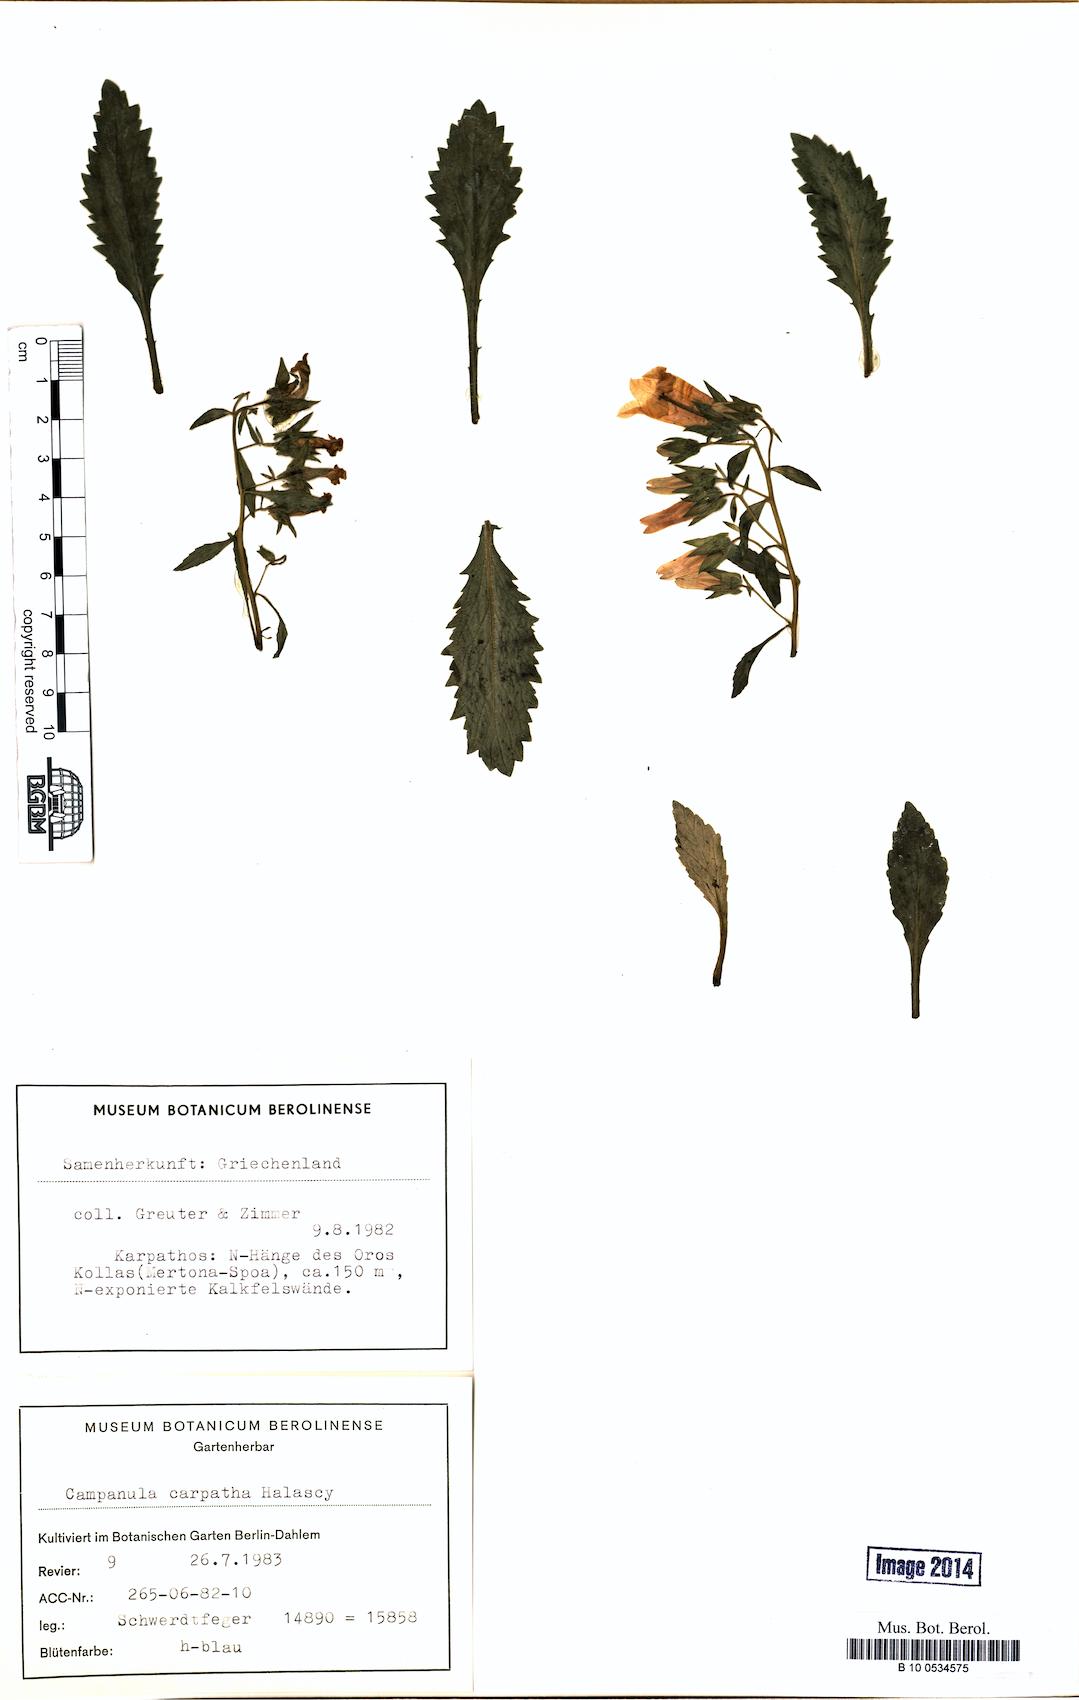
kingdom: Plantae
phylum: Tracheophyta
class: Magnoliopsida
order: Asterales
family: Campanulaceae
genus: Campanula
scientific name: Campanula carpatha
